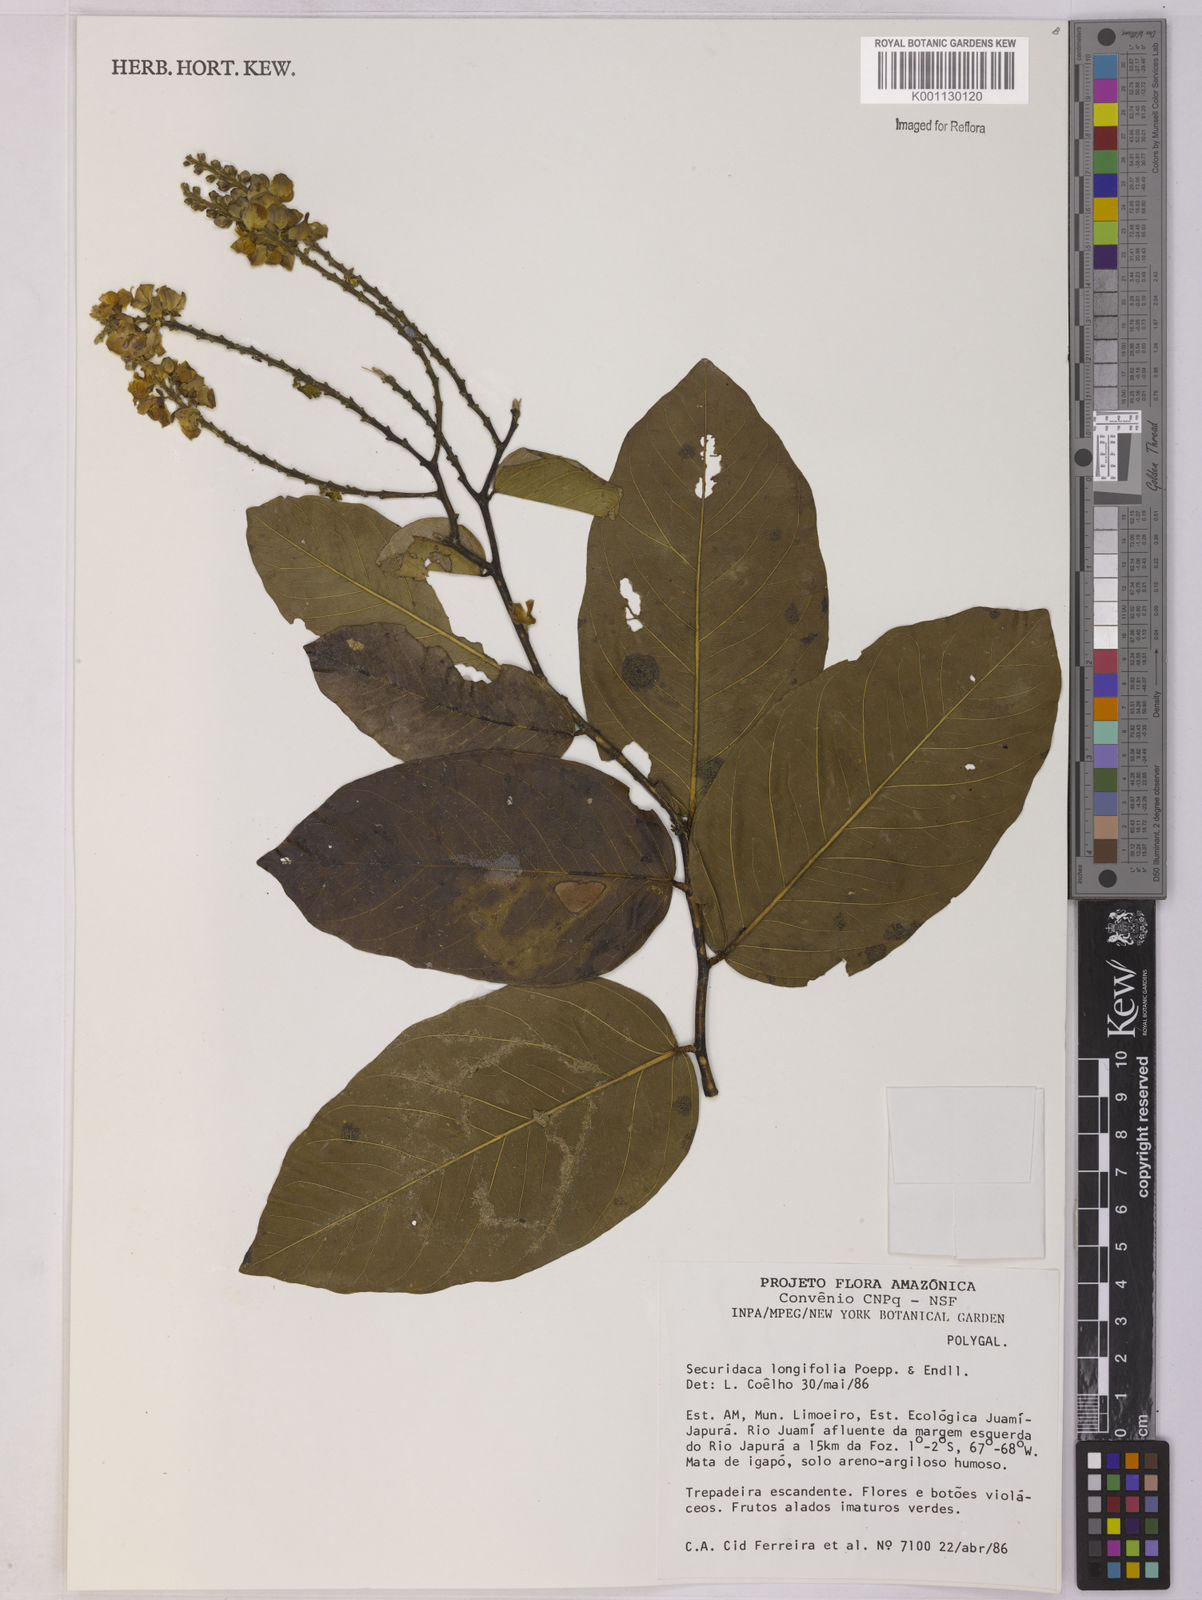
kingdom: Plantae
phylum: Tracheophyta
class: Magnoliopsida
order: Fabales
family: Polygalaceae
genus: Securidaca
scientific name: Securidaca longifolia
